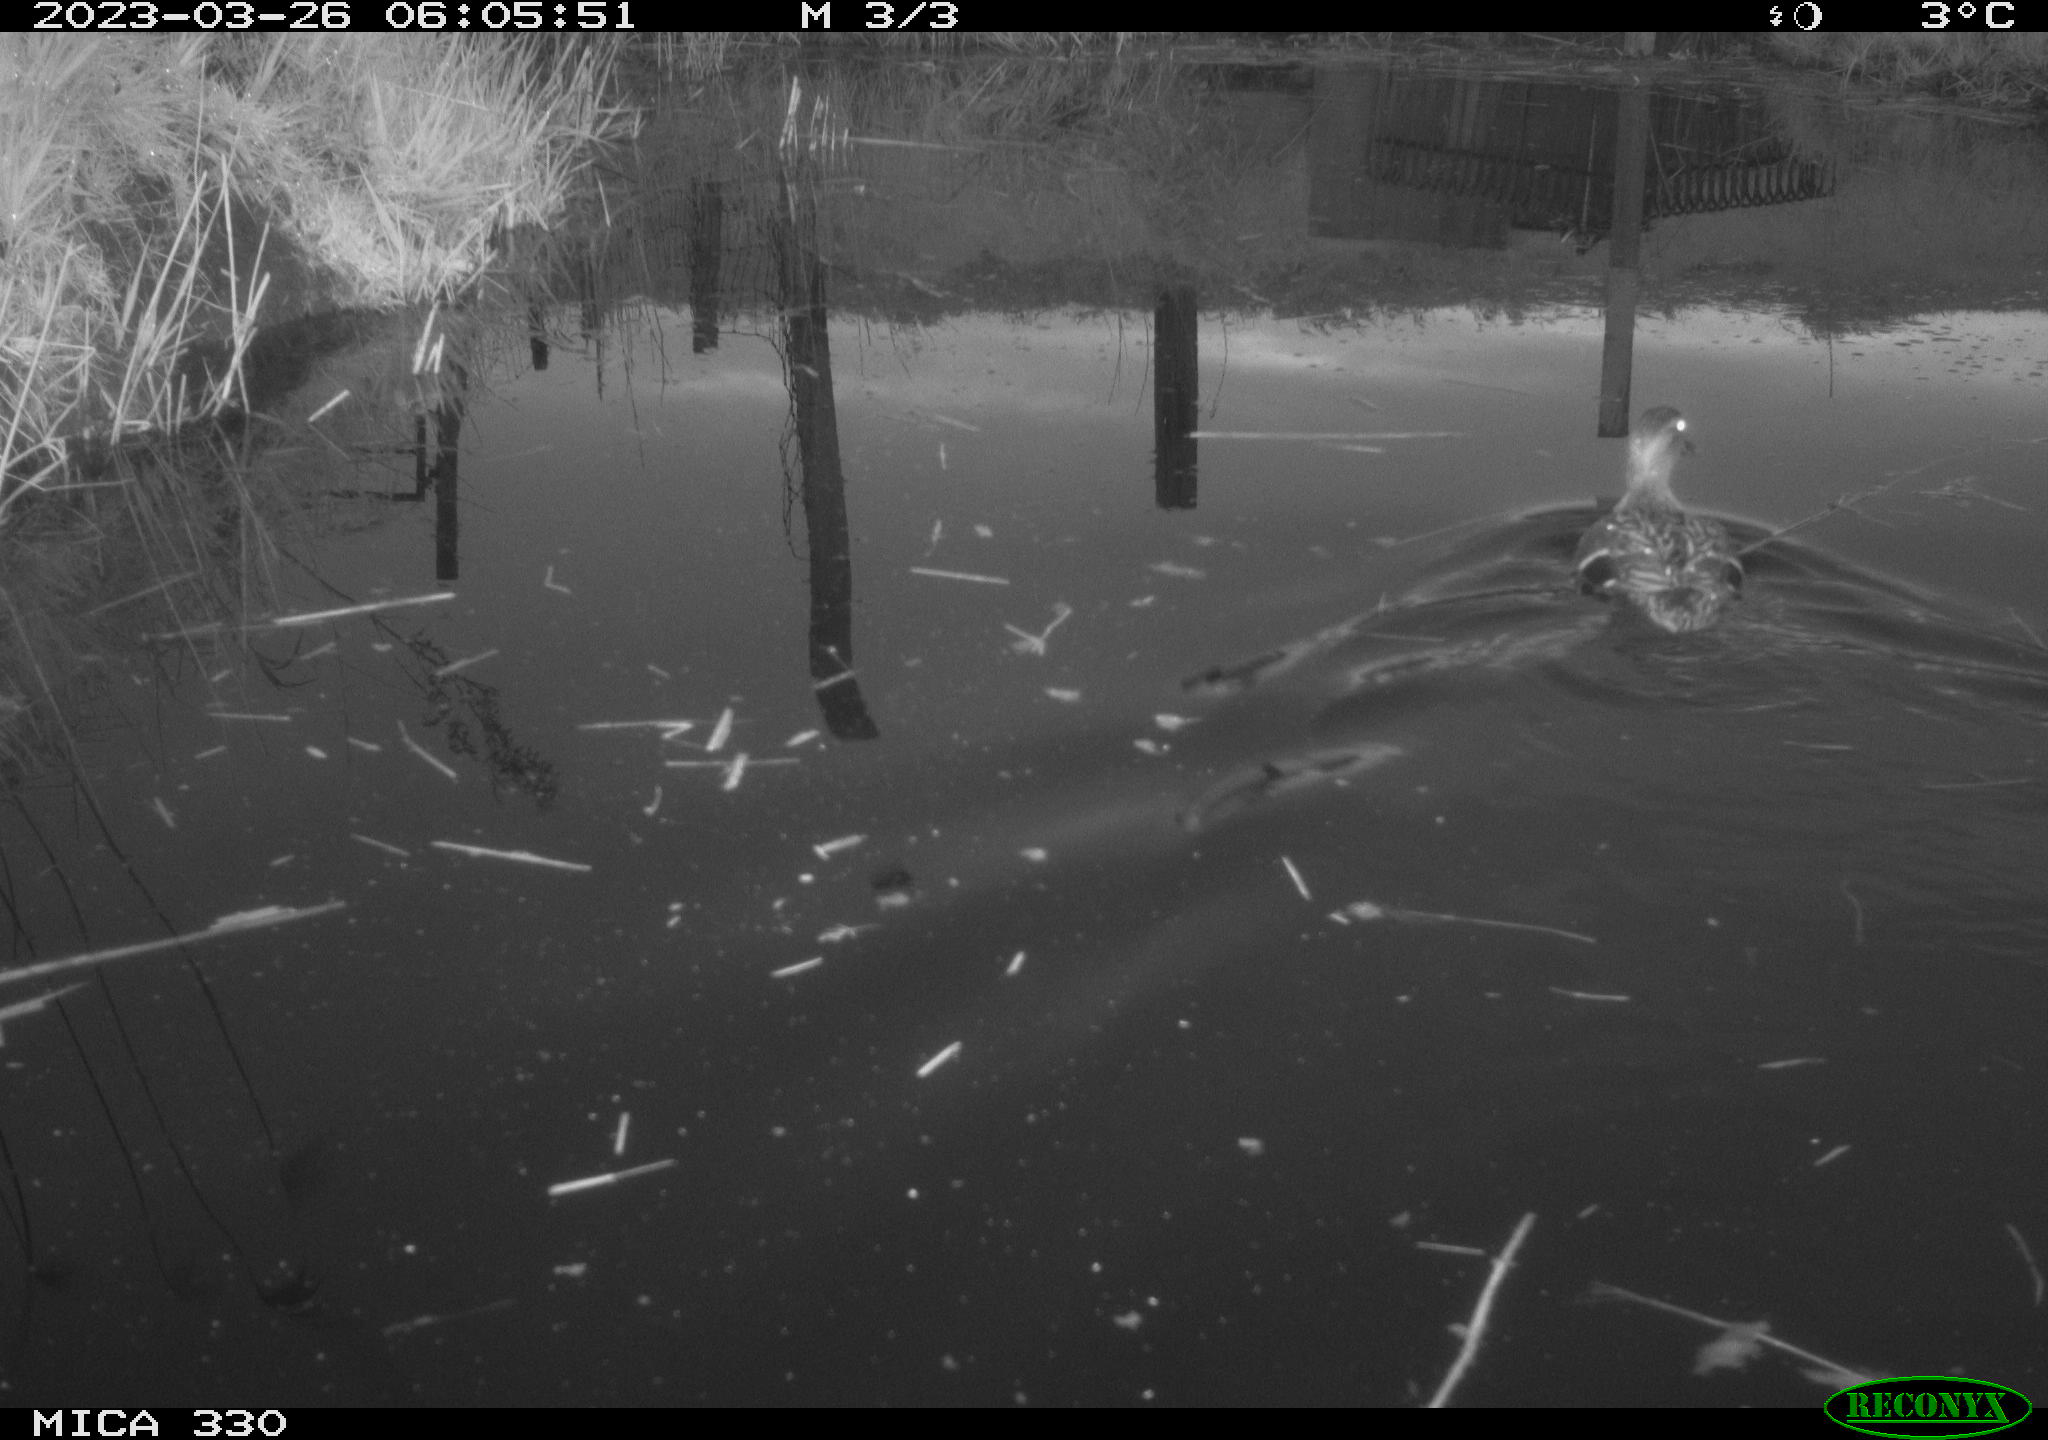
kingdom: Animalia
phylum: Chordata
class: Aves
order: Anseriformes
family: Anatidae
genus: Anas
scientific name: Anas
